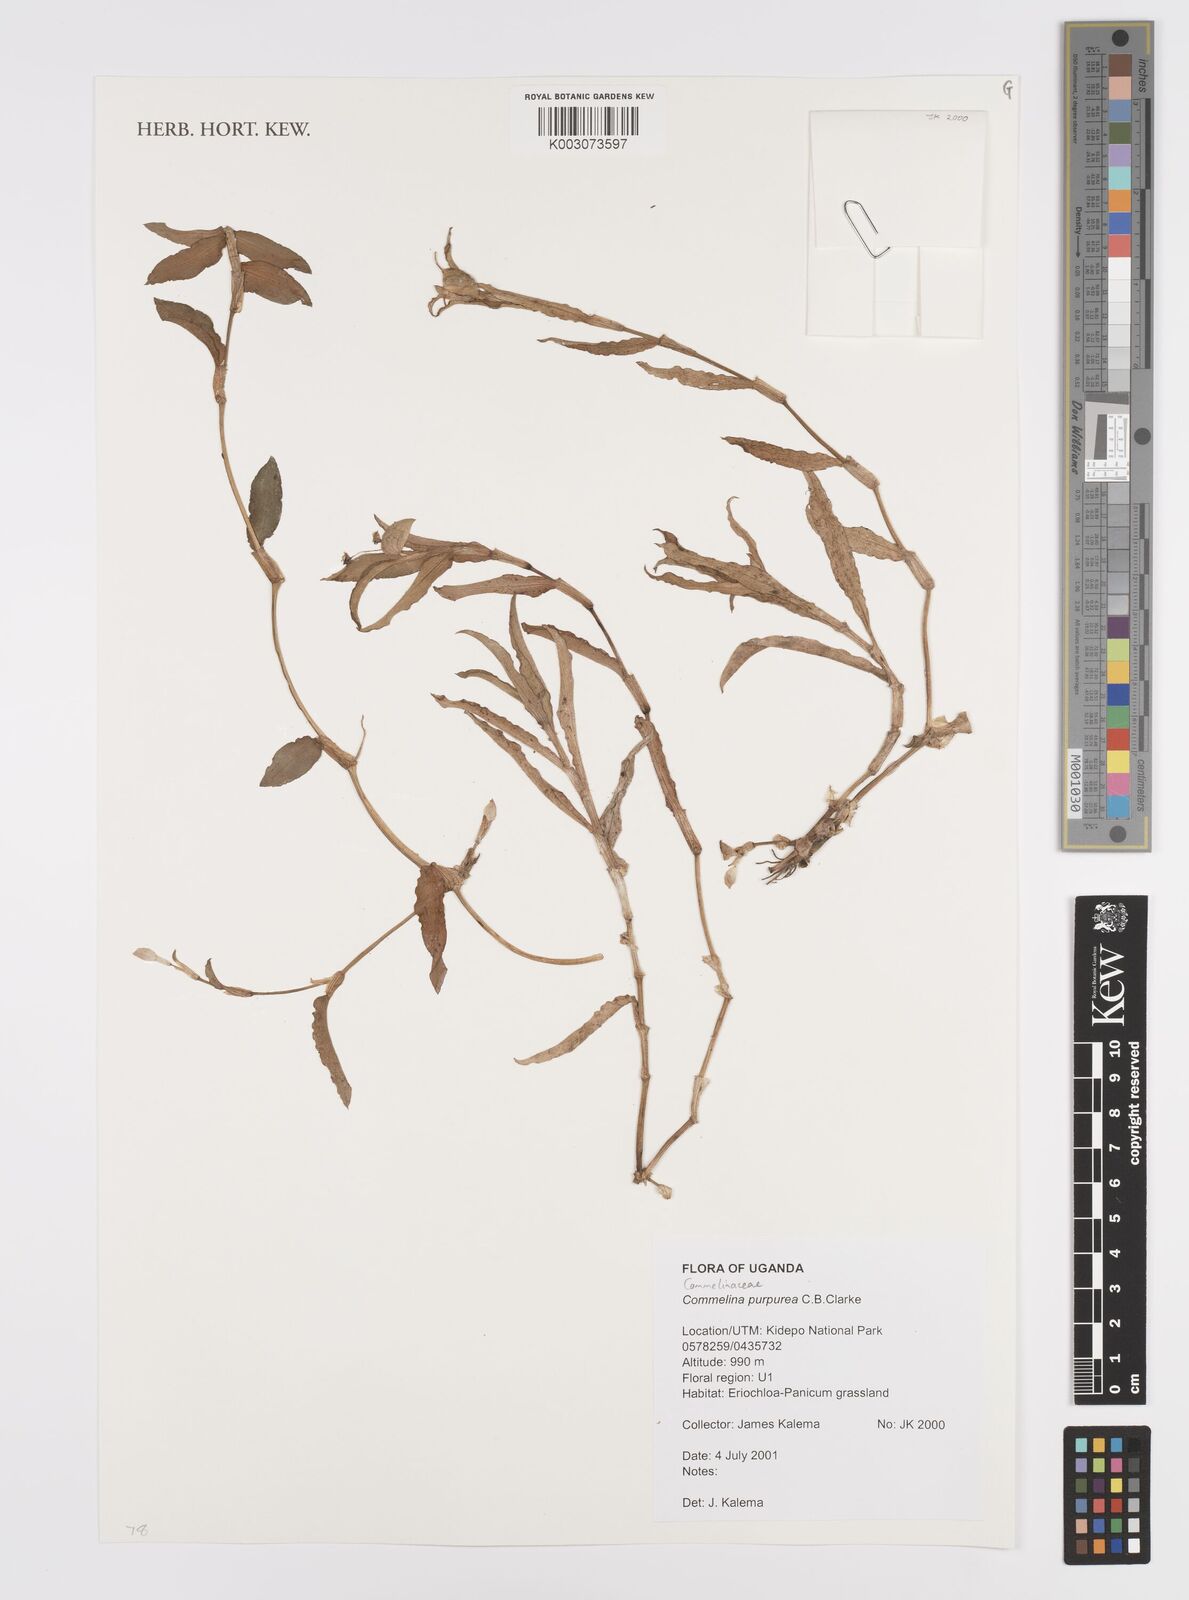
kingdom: Plantae
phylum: Tracheophyta
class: Liliopsida
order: Commelinales
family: Commelinaceae
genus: Commelina
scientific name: Commelina purpurea
